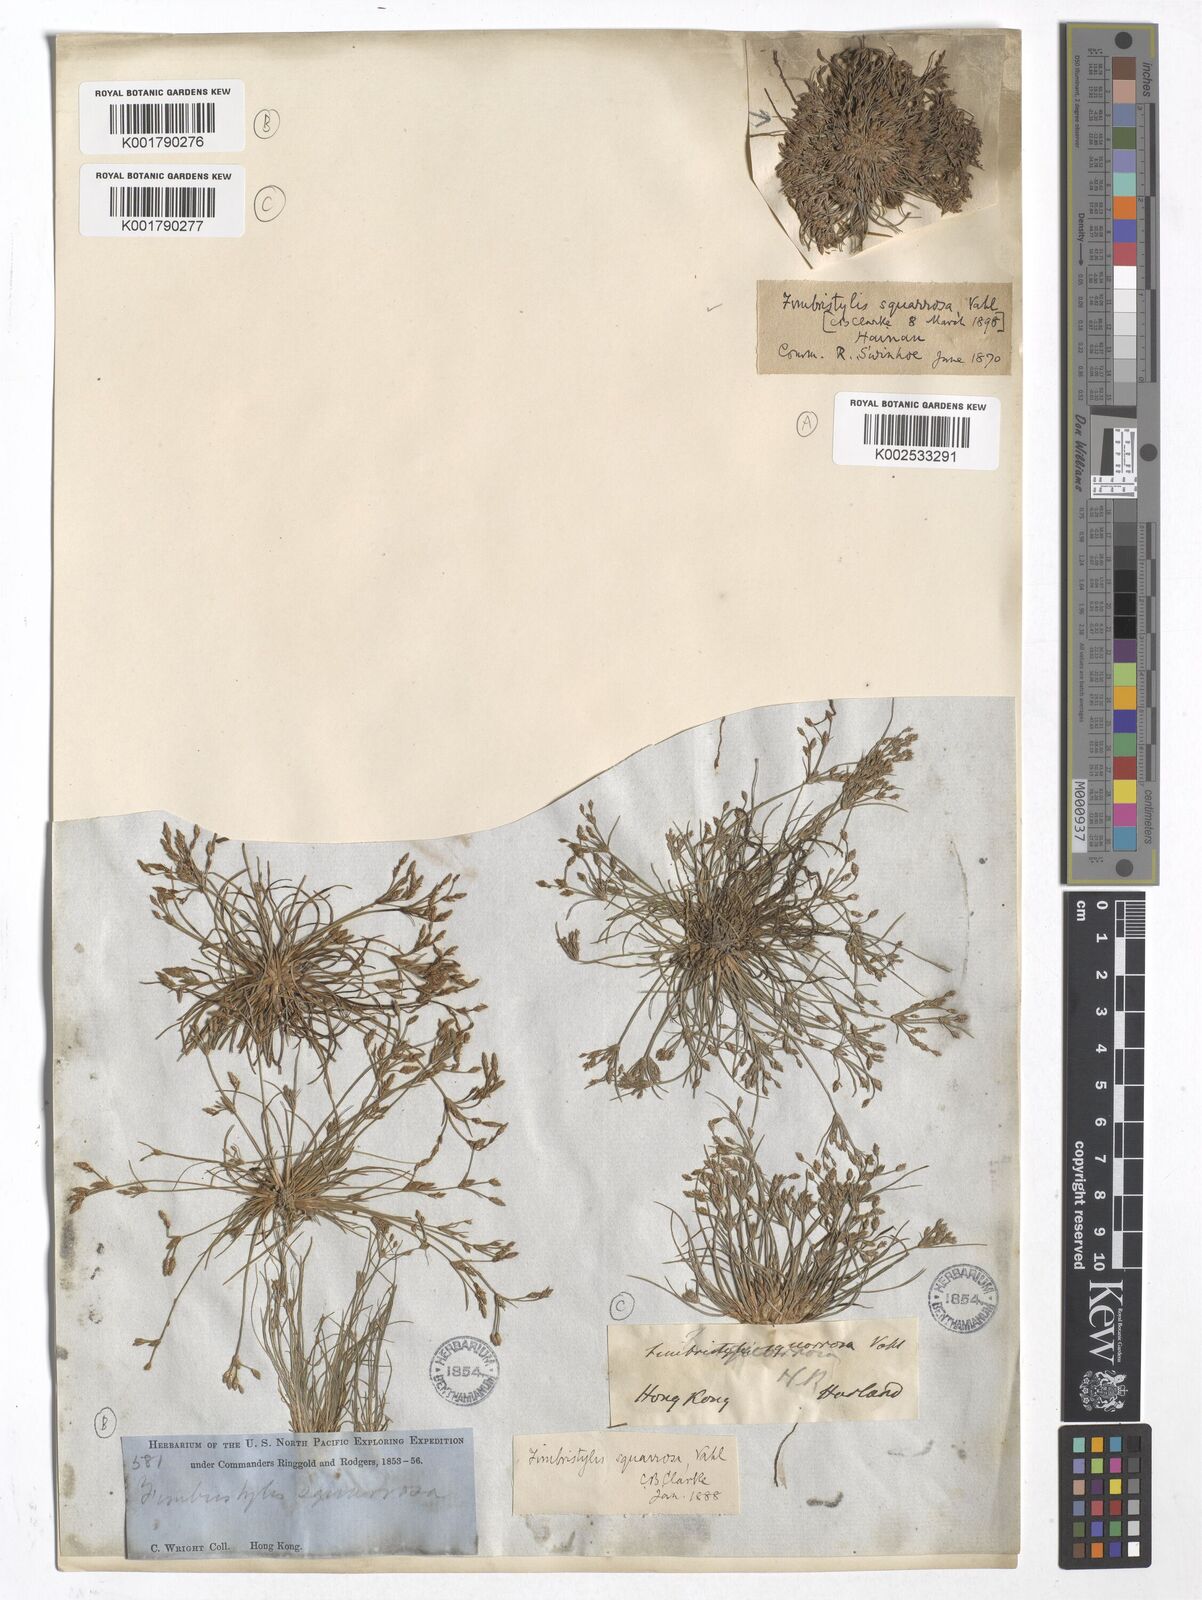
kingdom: Plantae
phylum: Tracheophyta
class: Liliopsida
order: Poales
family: Cyperaceae
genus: Fimbristylis
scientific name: Fimbristylis squarrosa
